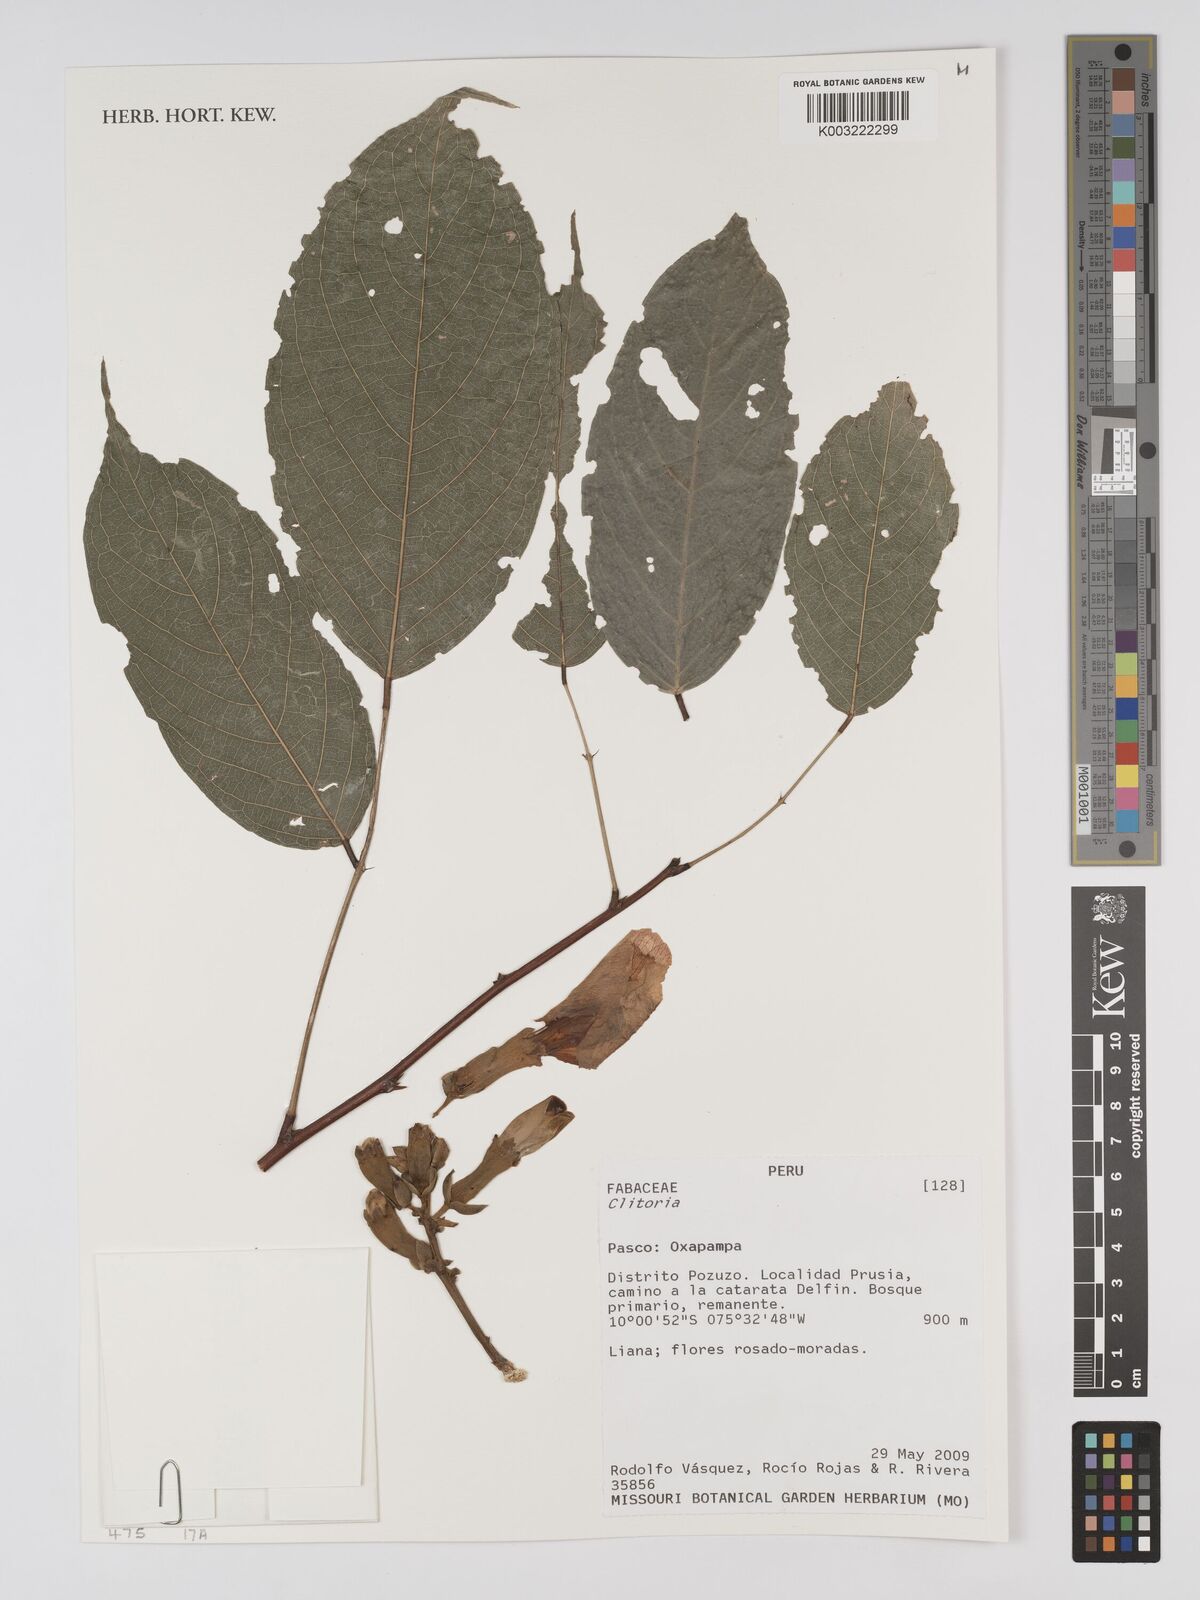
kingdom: Plantae
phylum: Tracheophyta
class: Magnoliopsida
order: Fabales
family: Fabaceae
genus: Clitoria
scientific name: Clitoria
